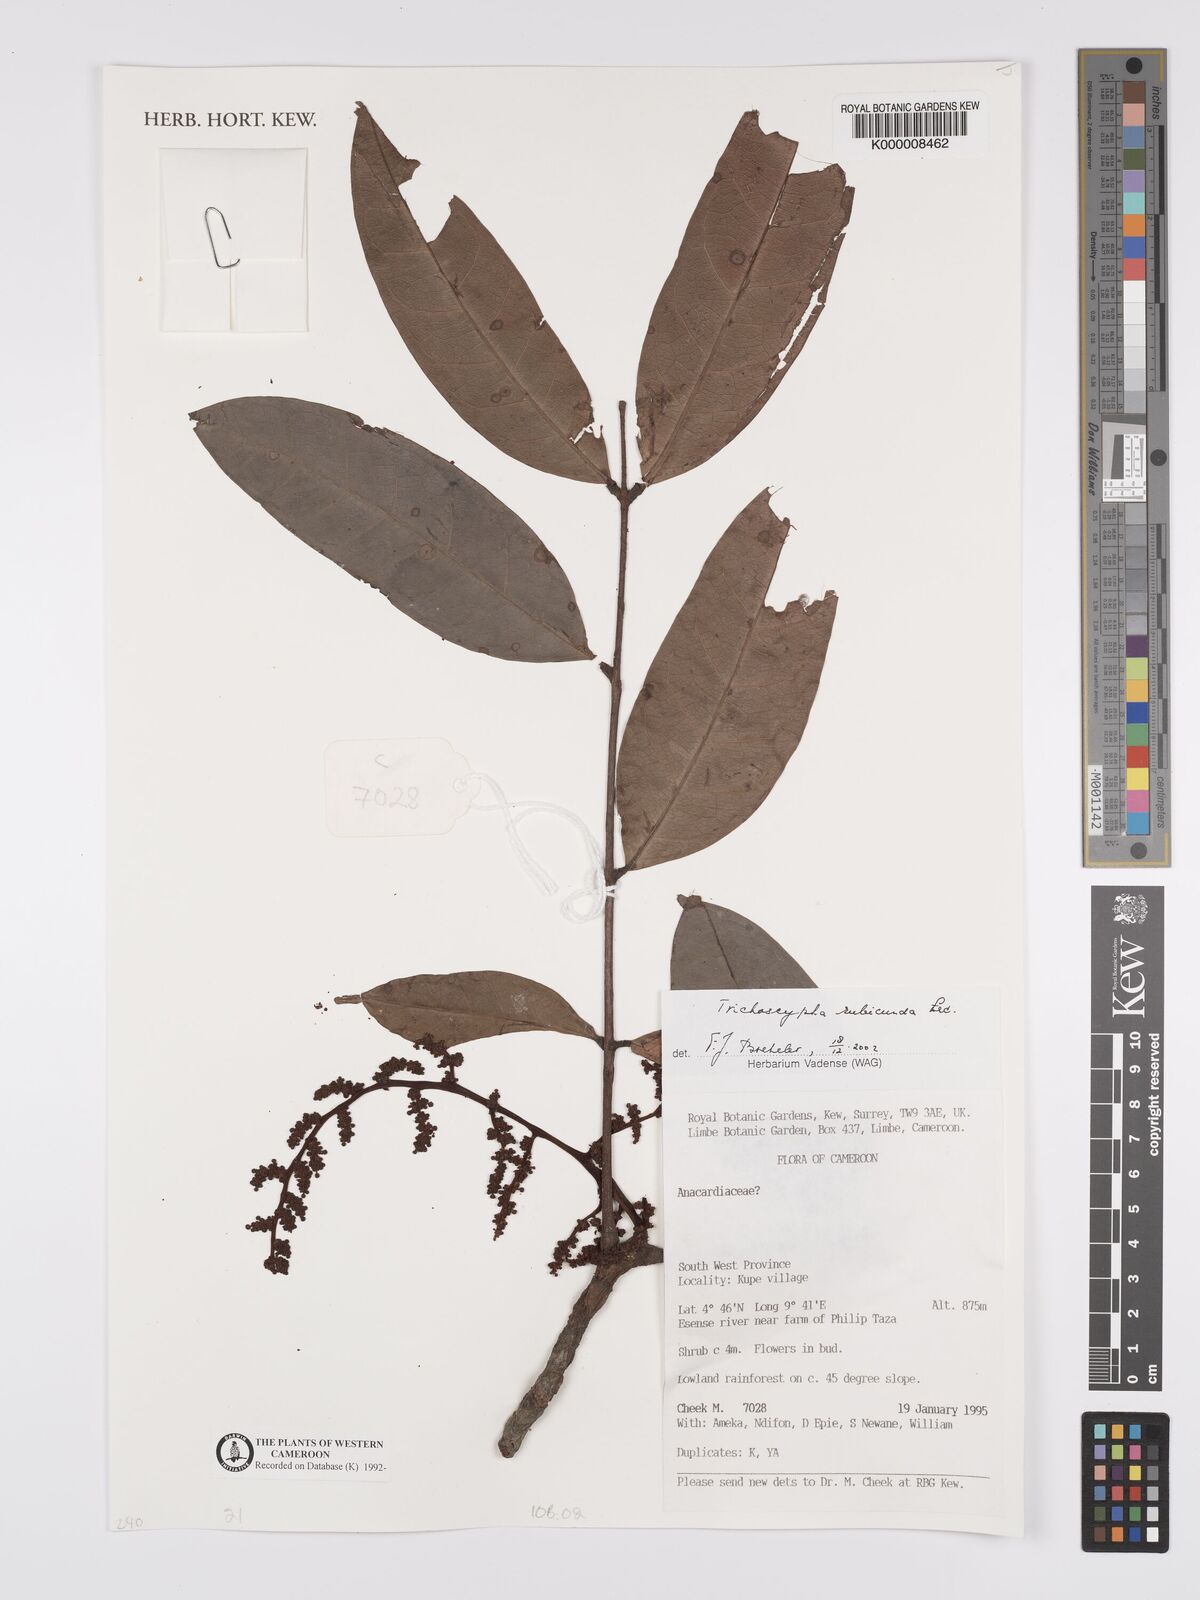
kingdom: Plantae
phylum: Tracheophyta
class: Magnoliopsida
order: Sapindales
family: Anacardiaceae
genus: Trichoscypha
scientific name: Trichoscypha rubicunda
